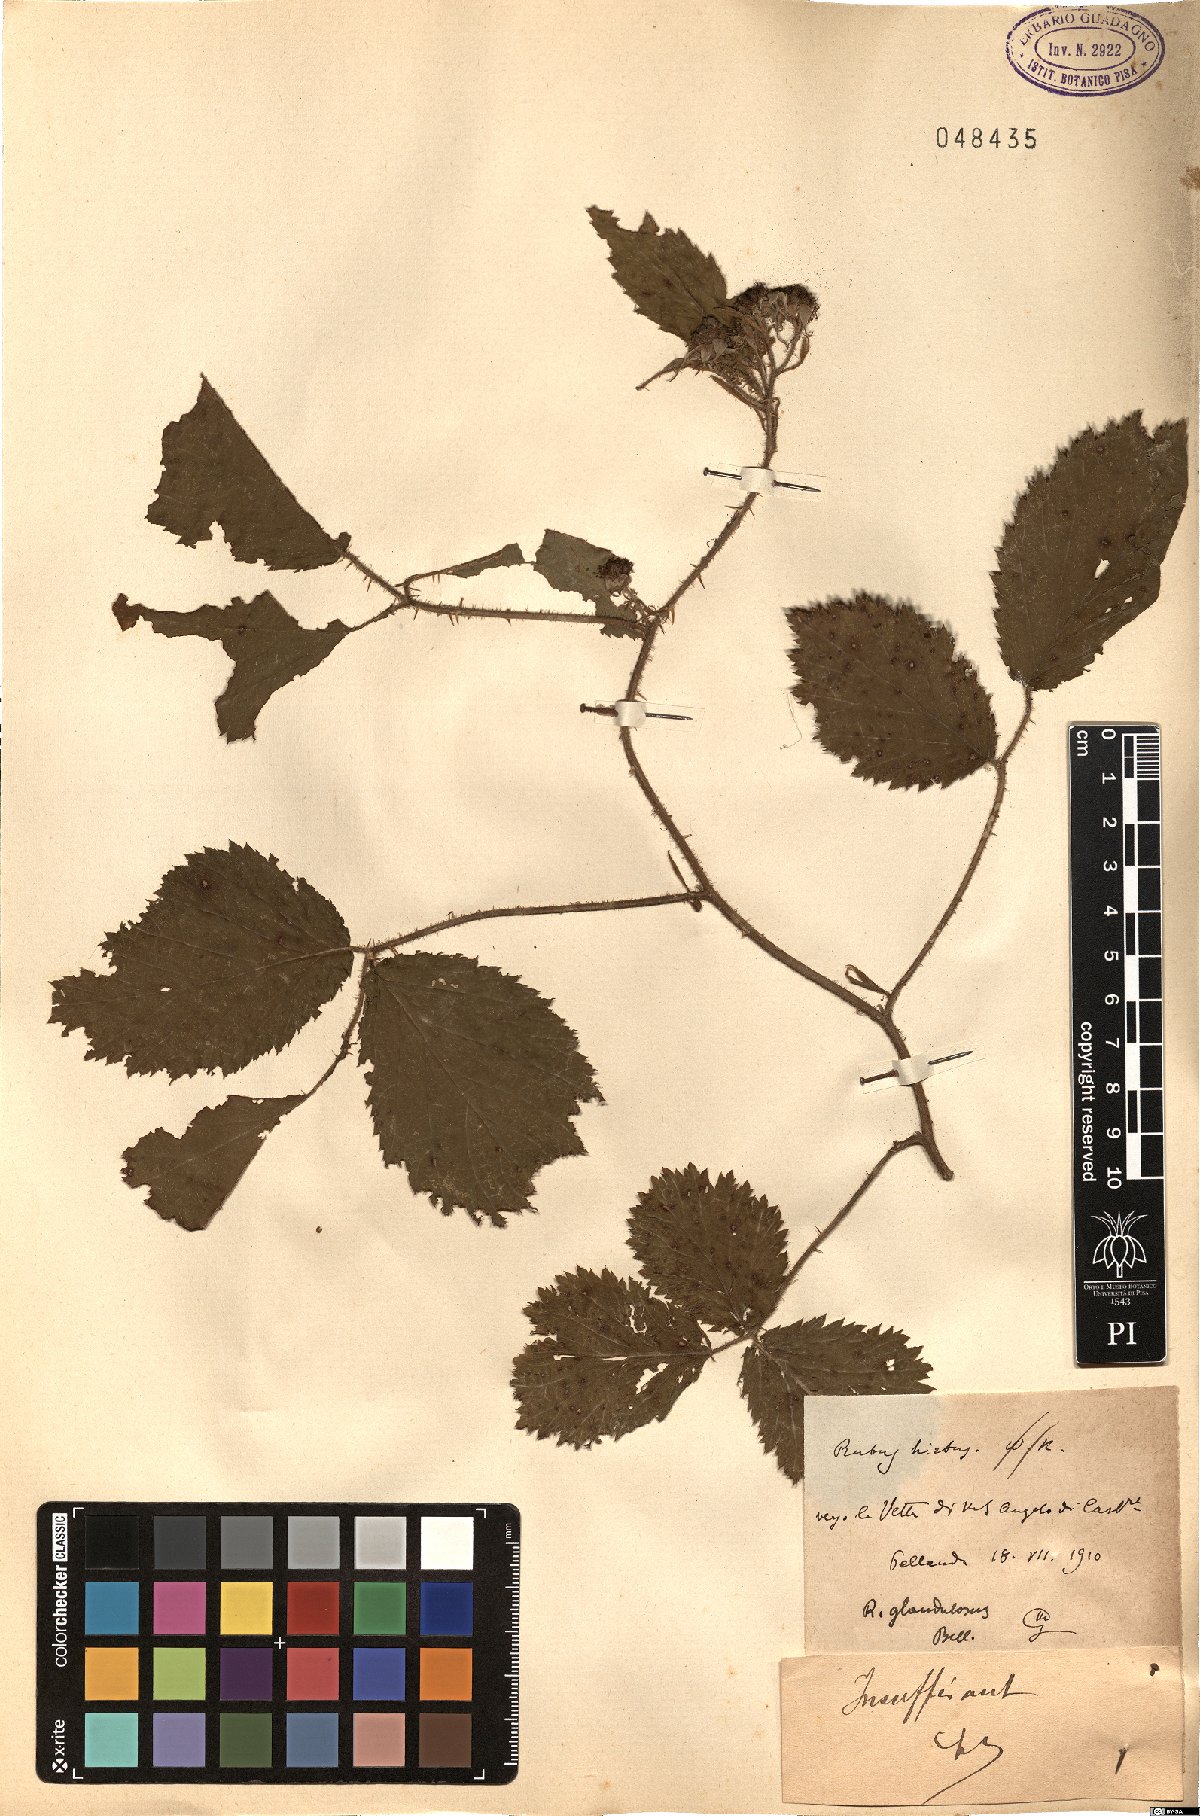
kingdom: Plantae
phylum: Tracheophyta
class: Magnoliopsida
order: Rosales
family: Rosaceae
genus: Rubus
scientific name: Rubus hirtus
